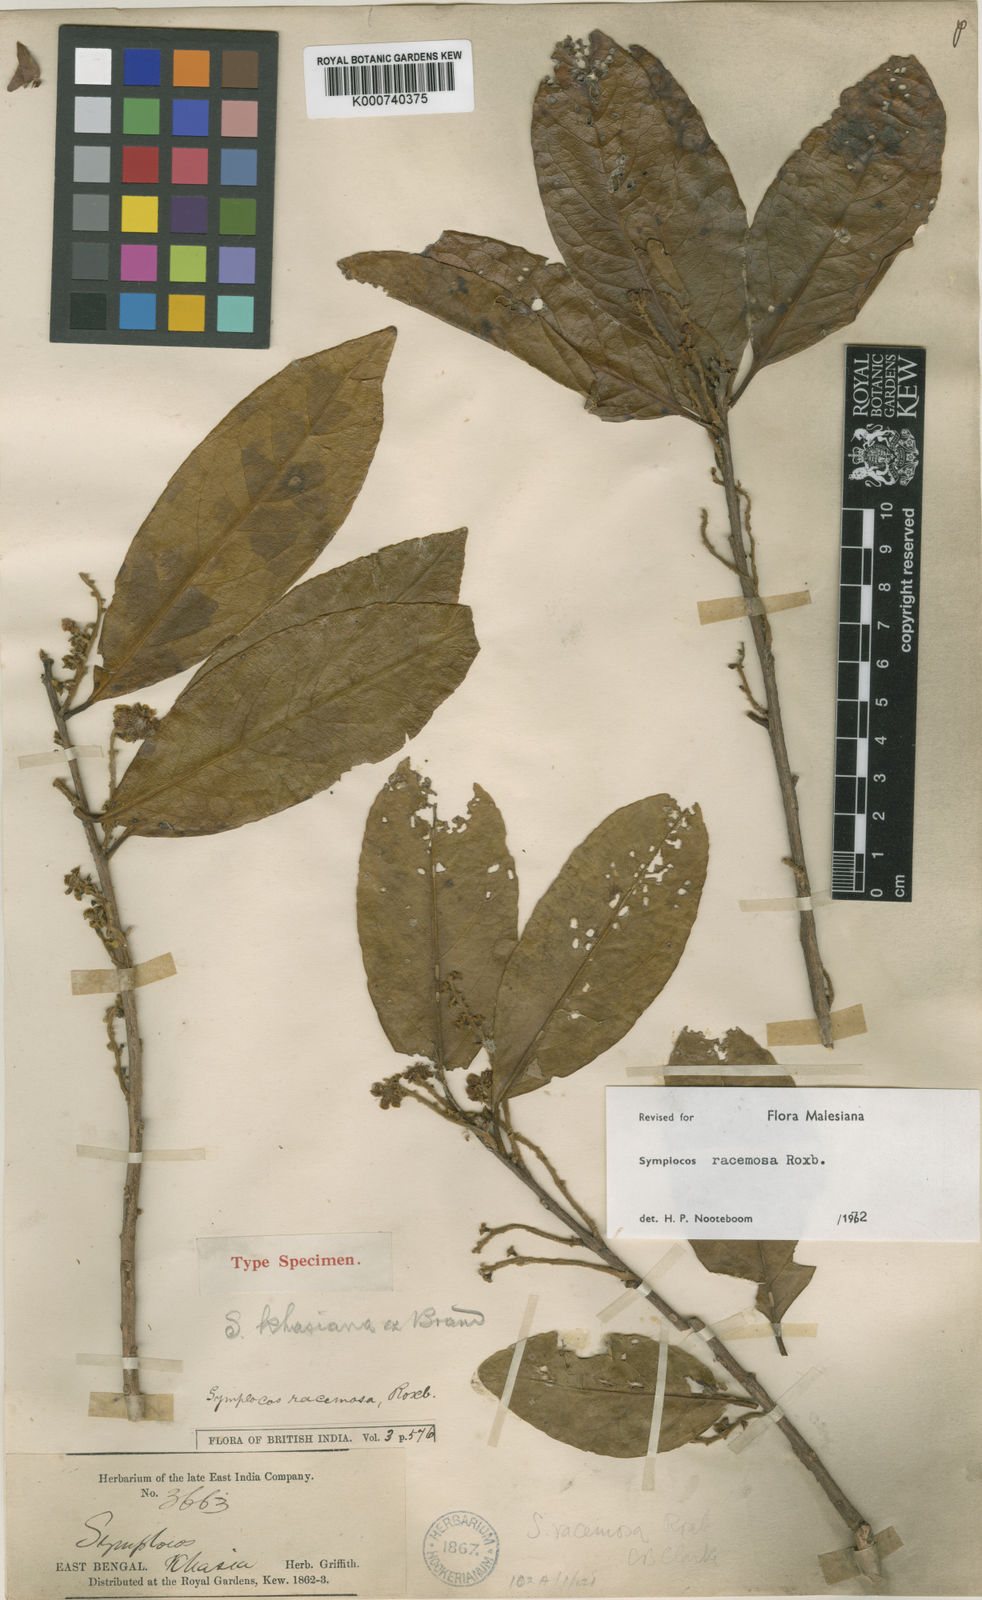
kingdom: Plantae
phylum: Tracheophyta
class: Magnoliopsida
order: Ericales
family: Symplocaceae
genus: Symplocos
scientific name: Symplocos racemosa
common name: Lodhtree
